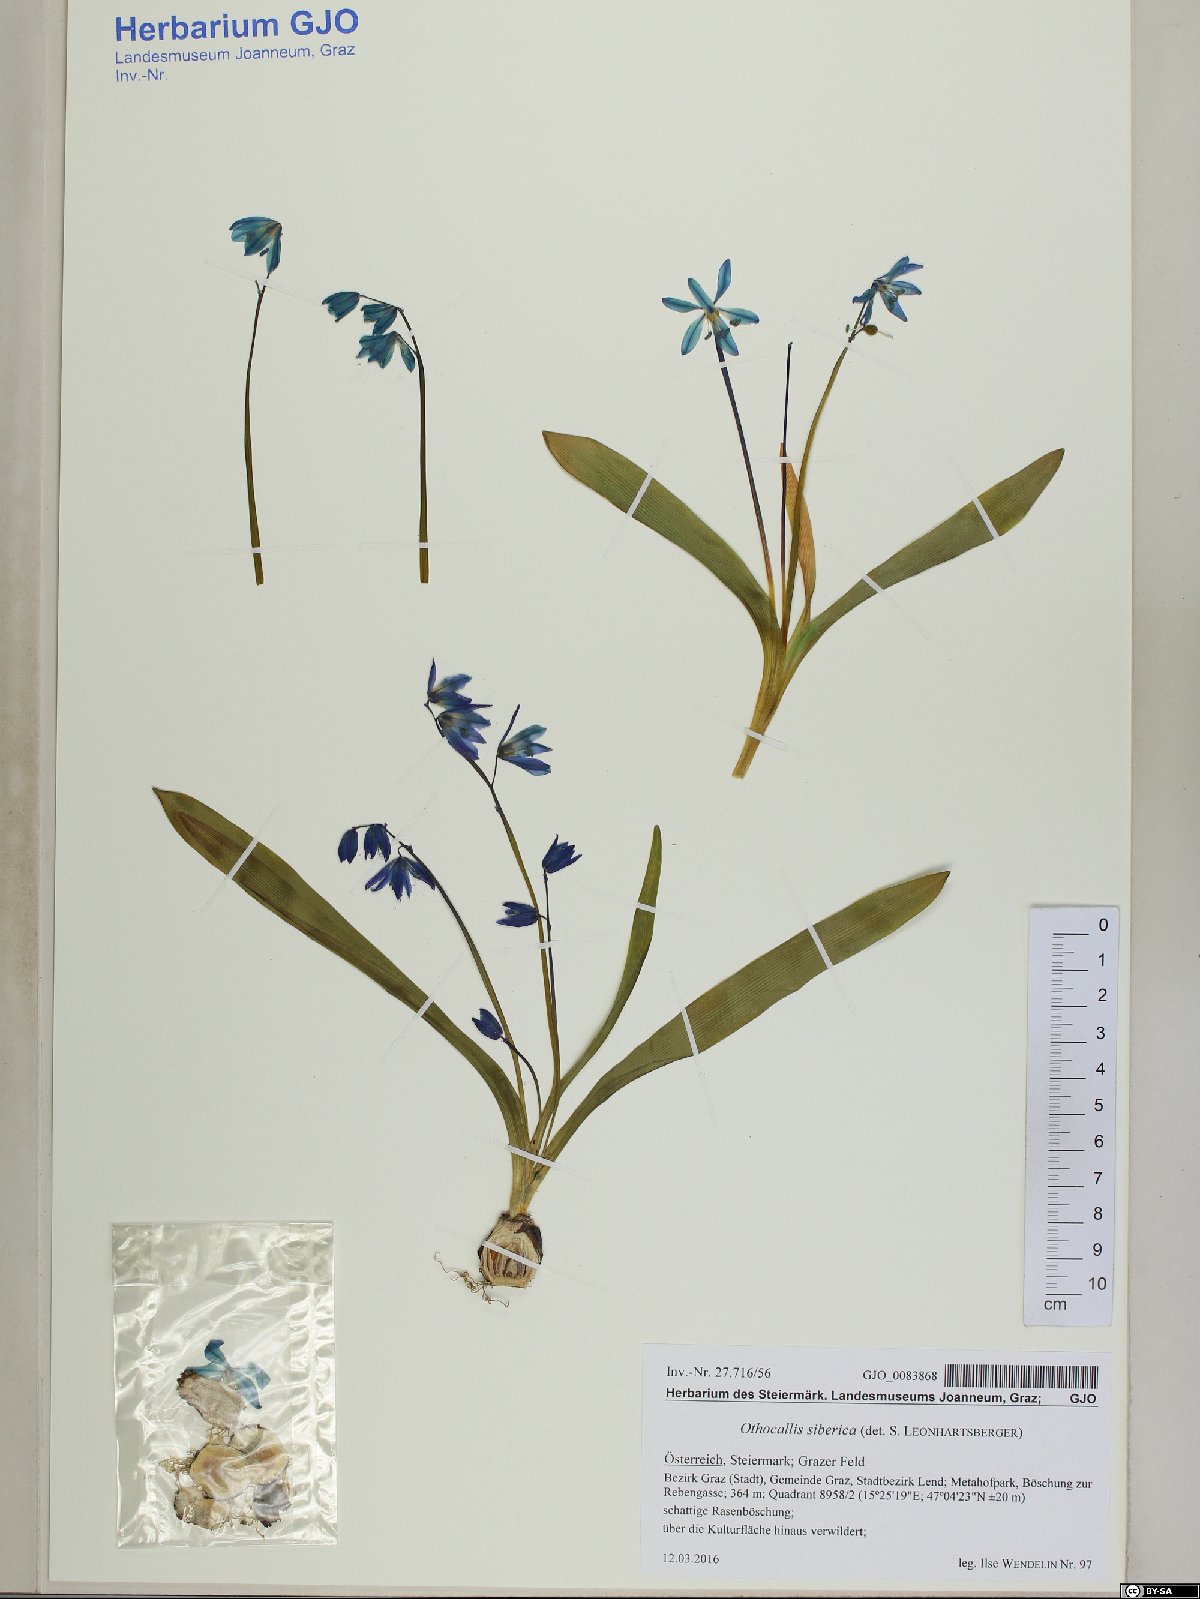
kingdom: Plantae
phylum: Tracheophyta
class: Liliopsida
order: Asparagales
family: Asparagaceae
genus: Scilla
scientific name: Scilla siberica
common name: Siberian squill
